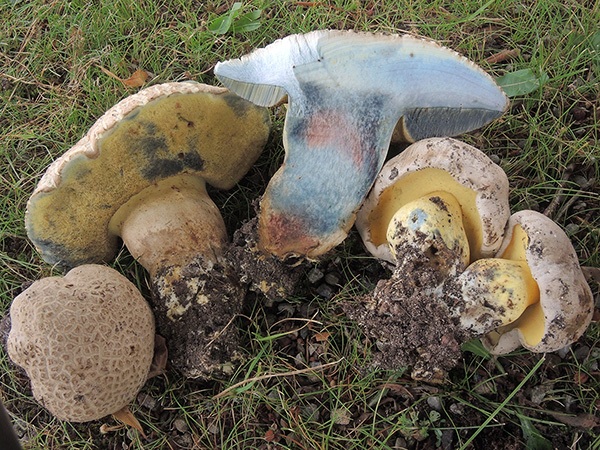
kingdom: Fungi
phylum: Basidiomycota
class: Agaricomycetes
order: Boletales
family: Boletaceae
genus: Caloboletus
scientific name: Caloboletus radicans
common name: rod-rørhat
